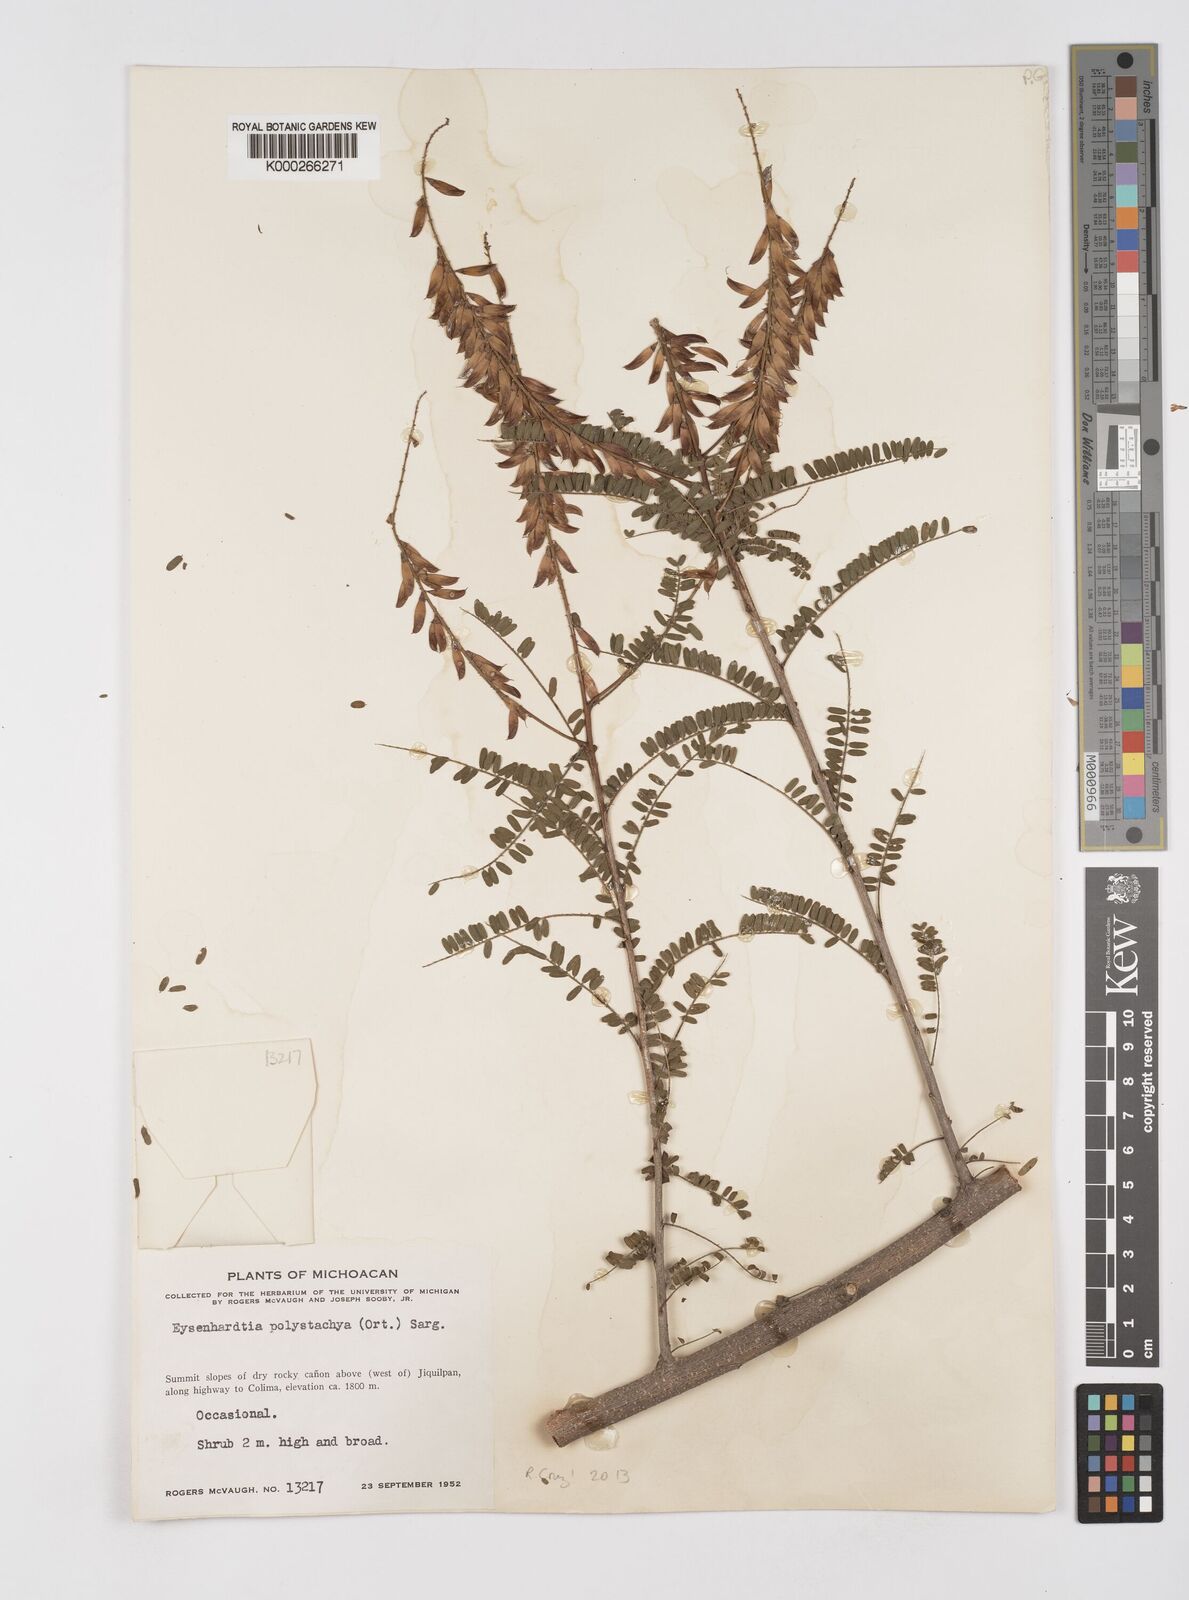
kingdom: Plantae
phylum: Tracheophyta
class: Magnoliopsida
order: Fabales
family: Fabaceae
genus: Eysenhardtia
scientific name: Eysenhardtia polystachya
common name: Kidneywood
